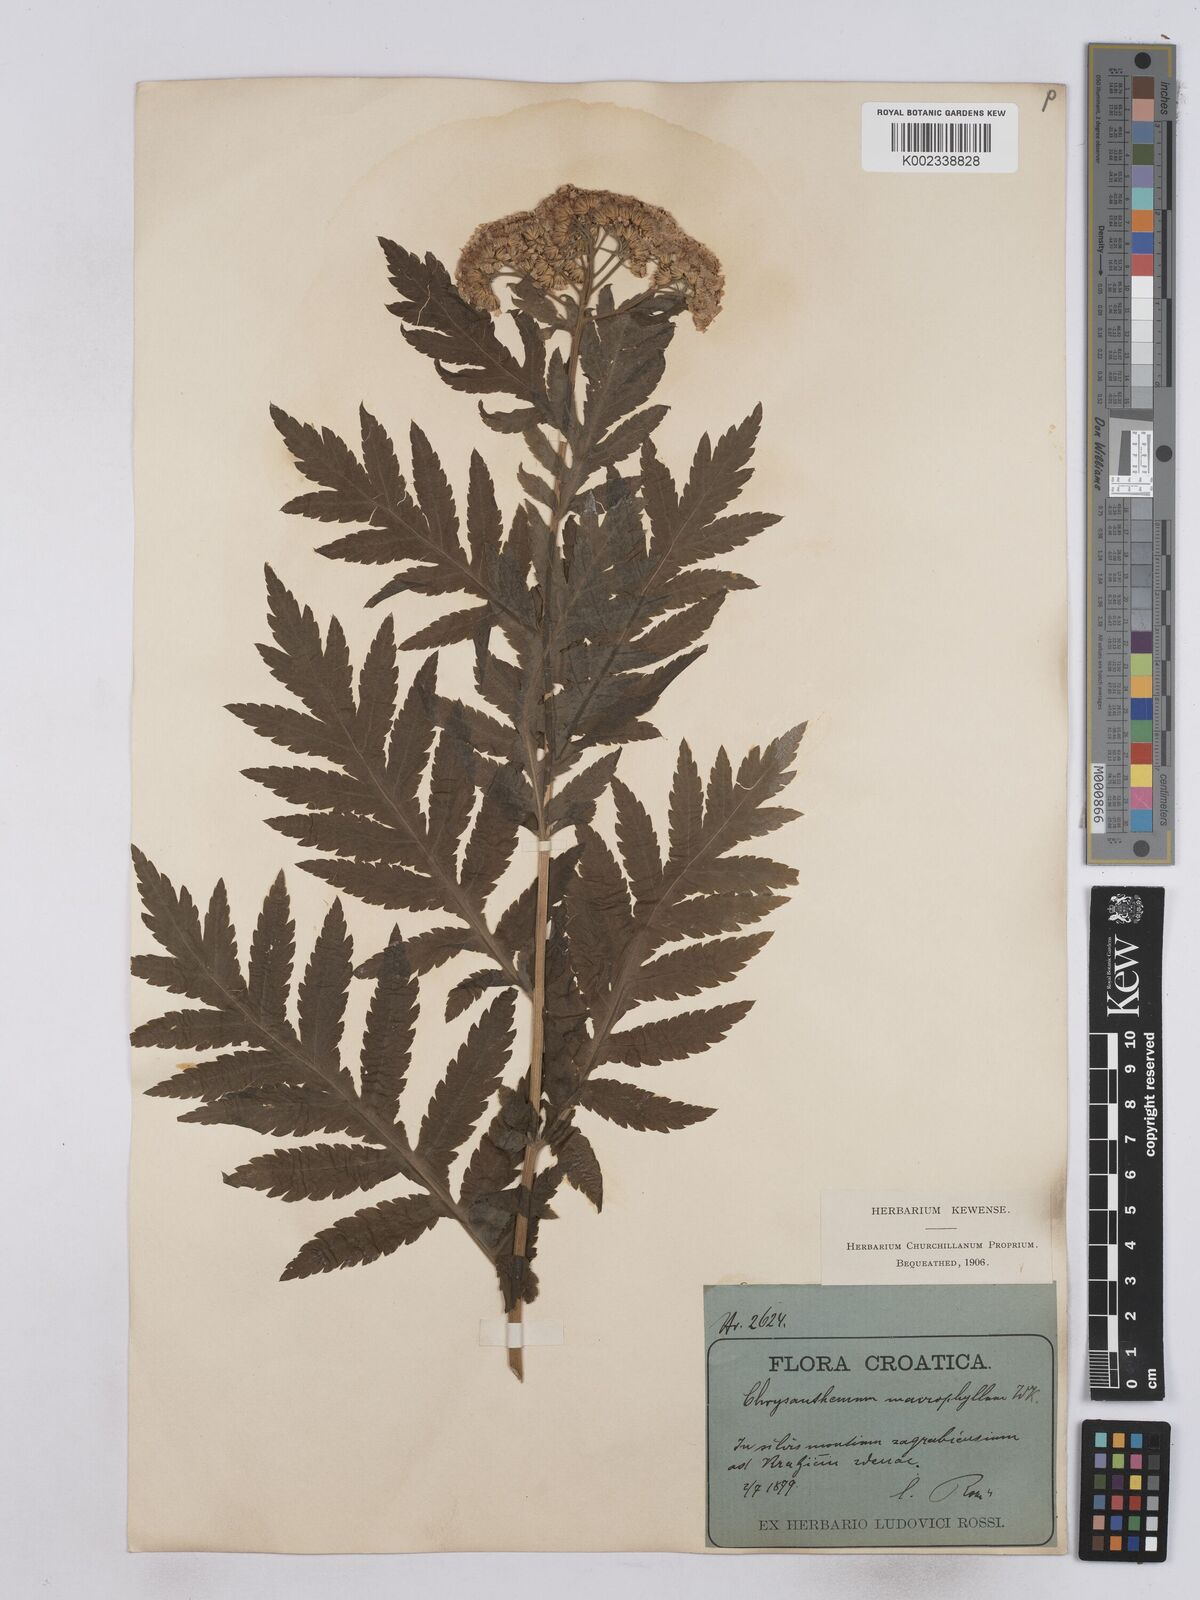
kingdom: Plantae
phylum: Tracheophyta
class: Magnoliopsida
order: Asterales
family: Asteraceae
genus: Tanacetum
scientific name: Tanacetum macrophyllum
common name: Rayed tansy
